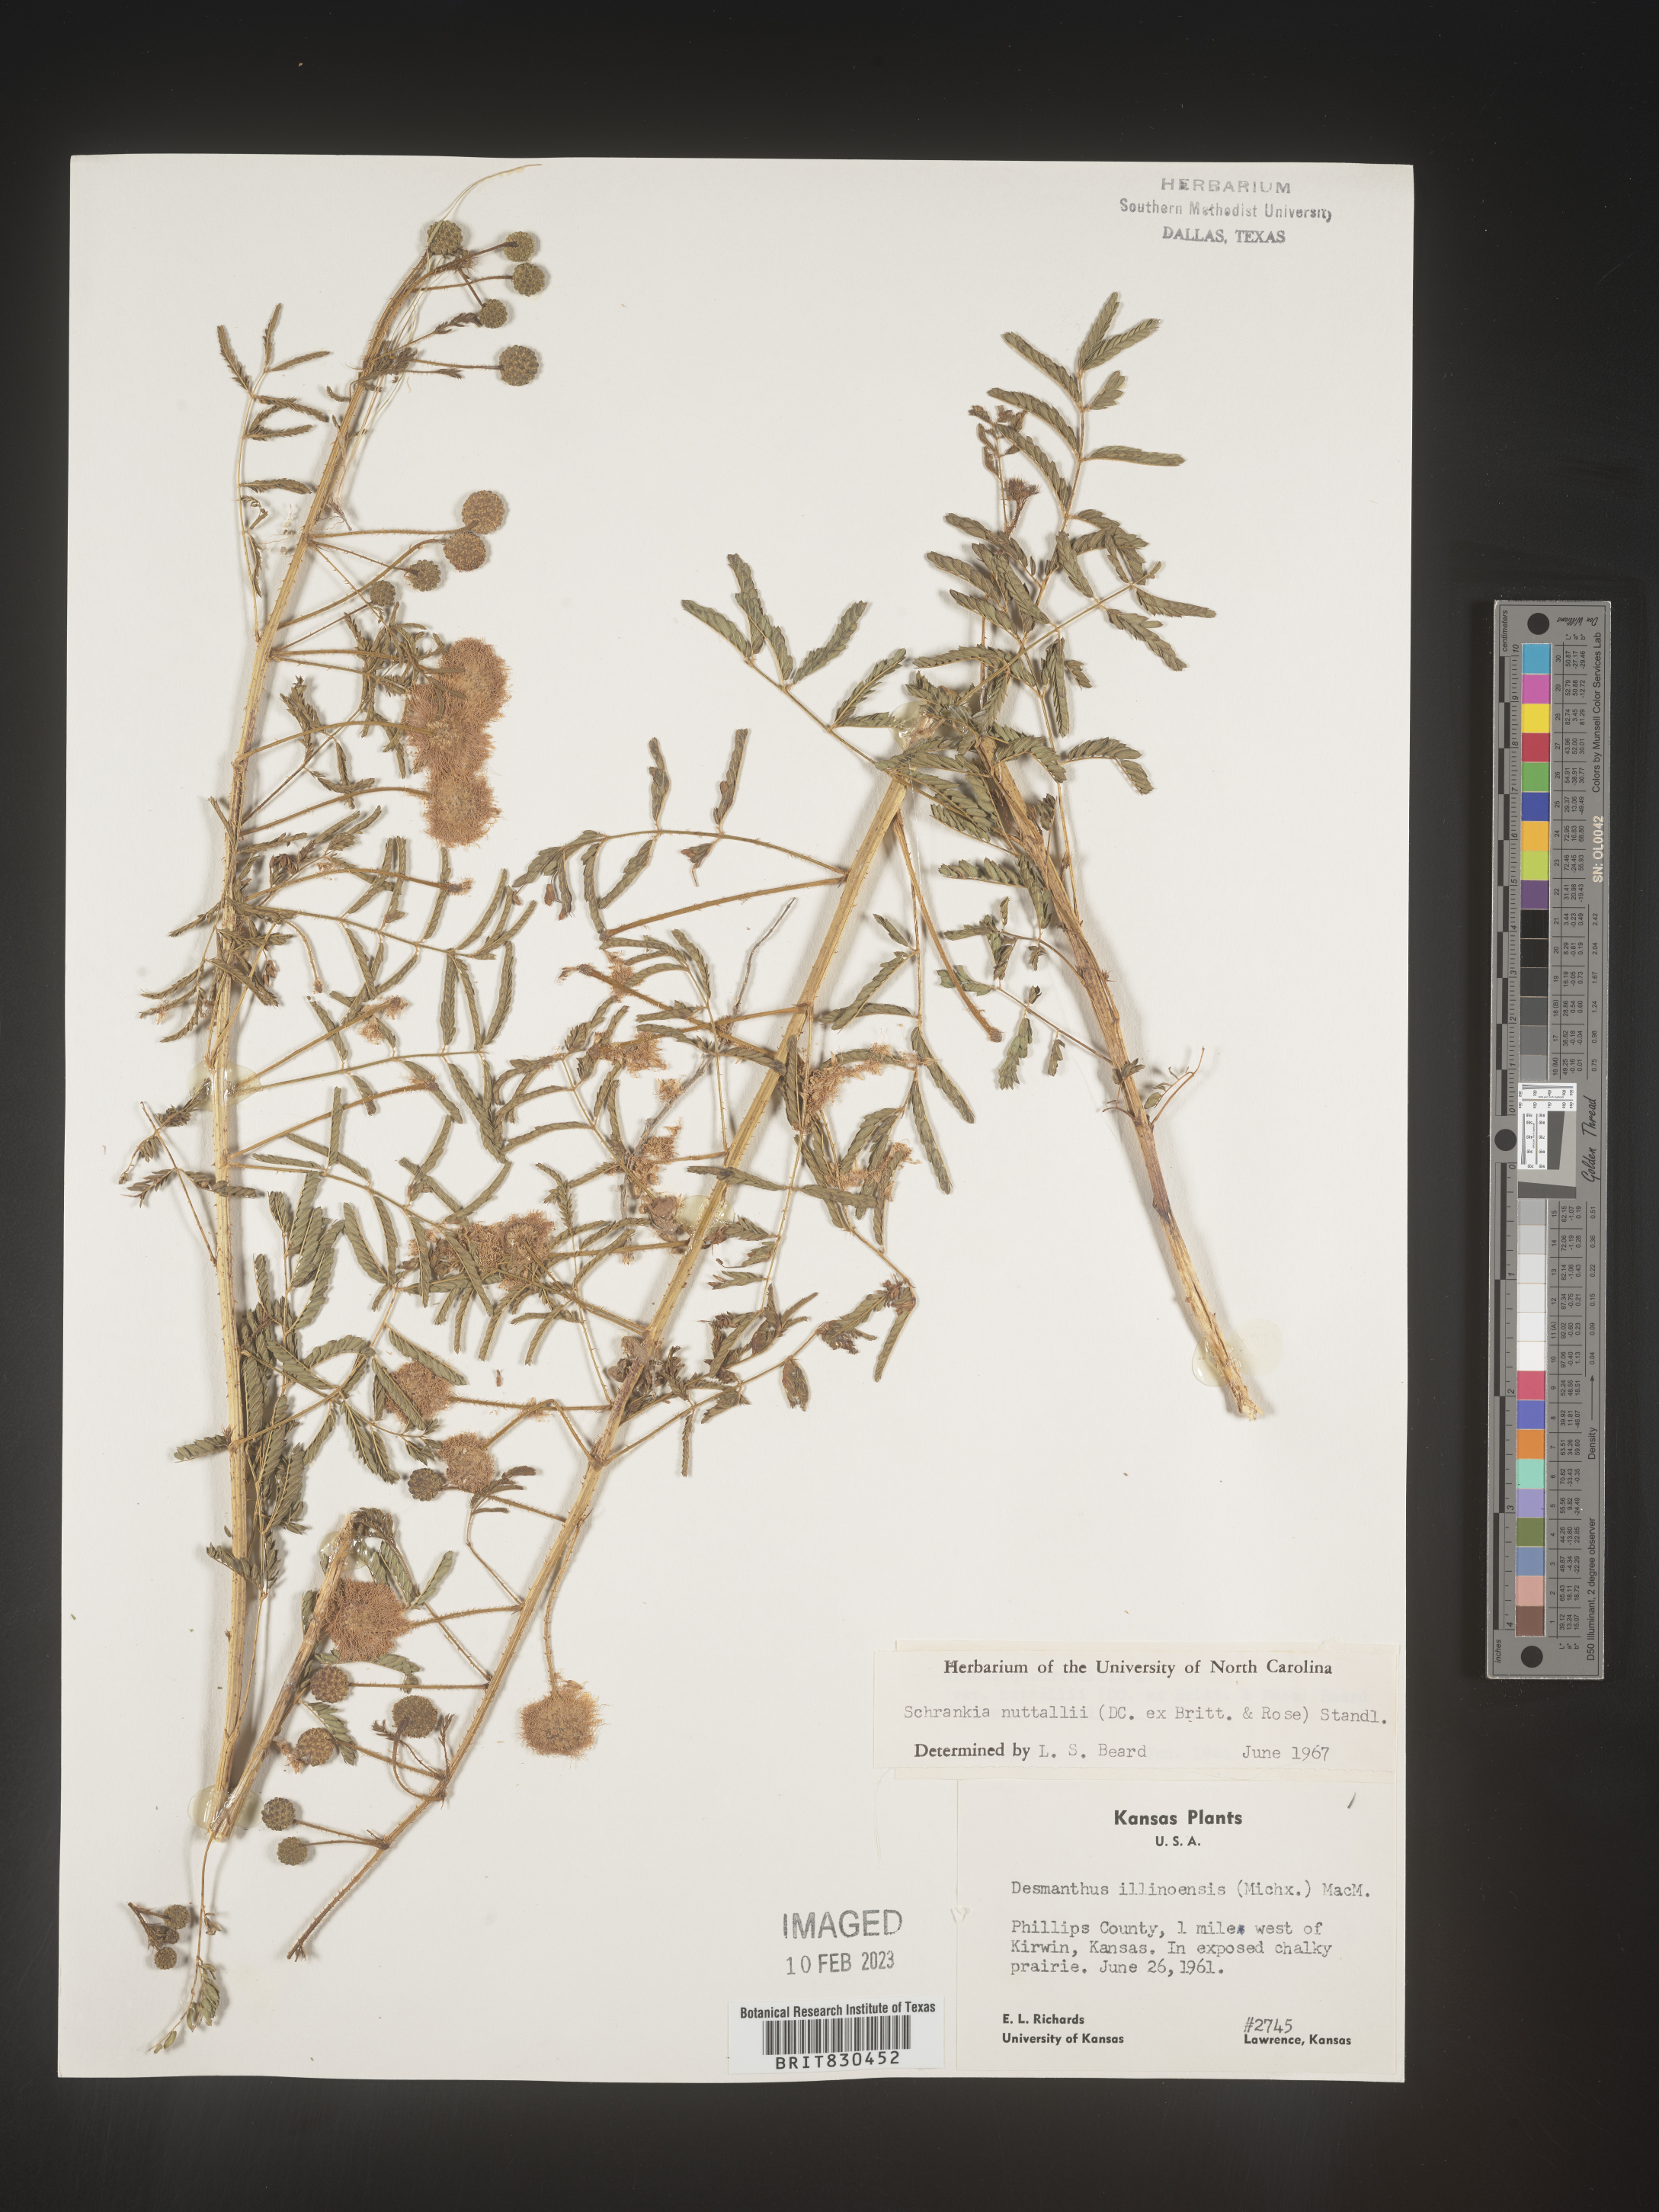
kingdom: Plantae
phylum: Tracheophyta
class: Magnoliopsida
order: Fabales
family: Fabaceae
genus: Mimosa
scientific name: Mimosa quadrivalvis
